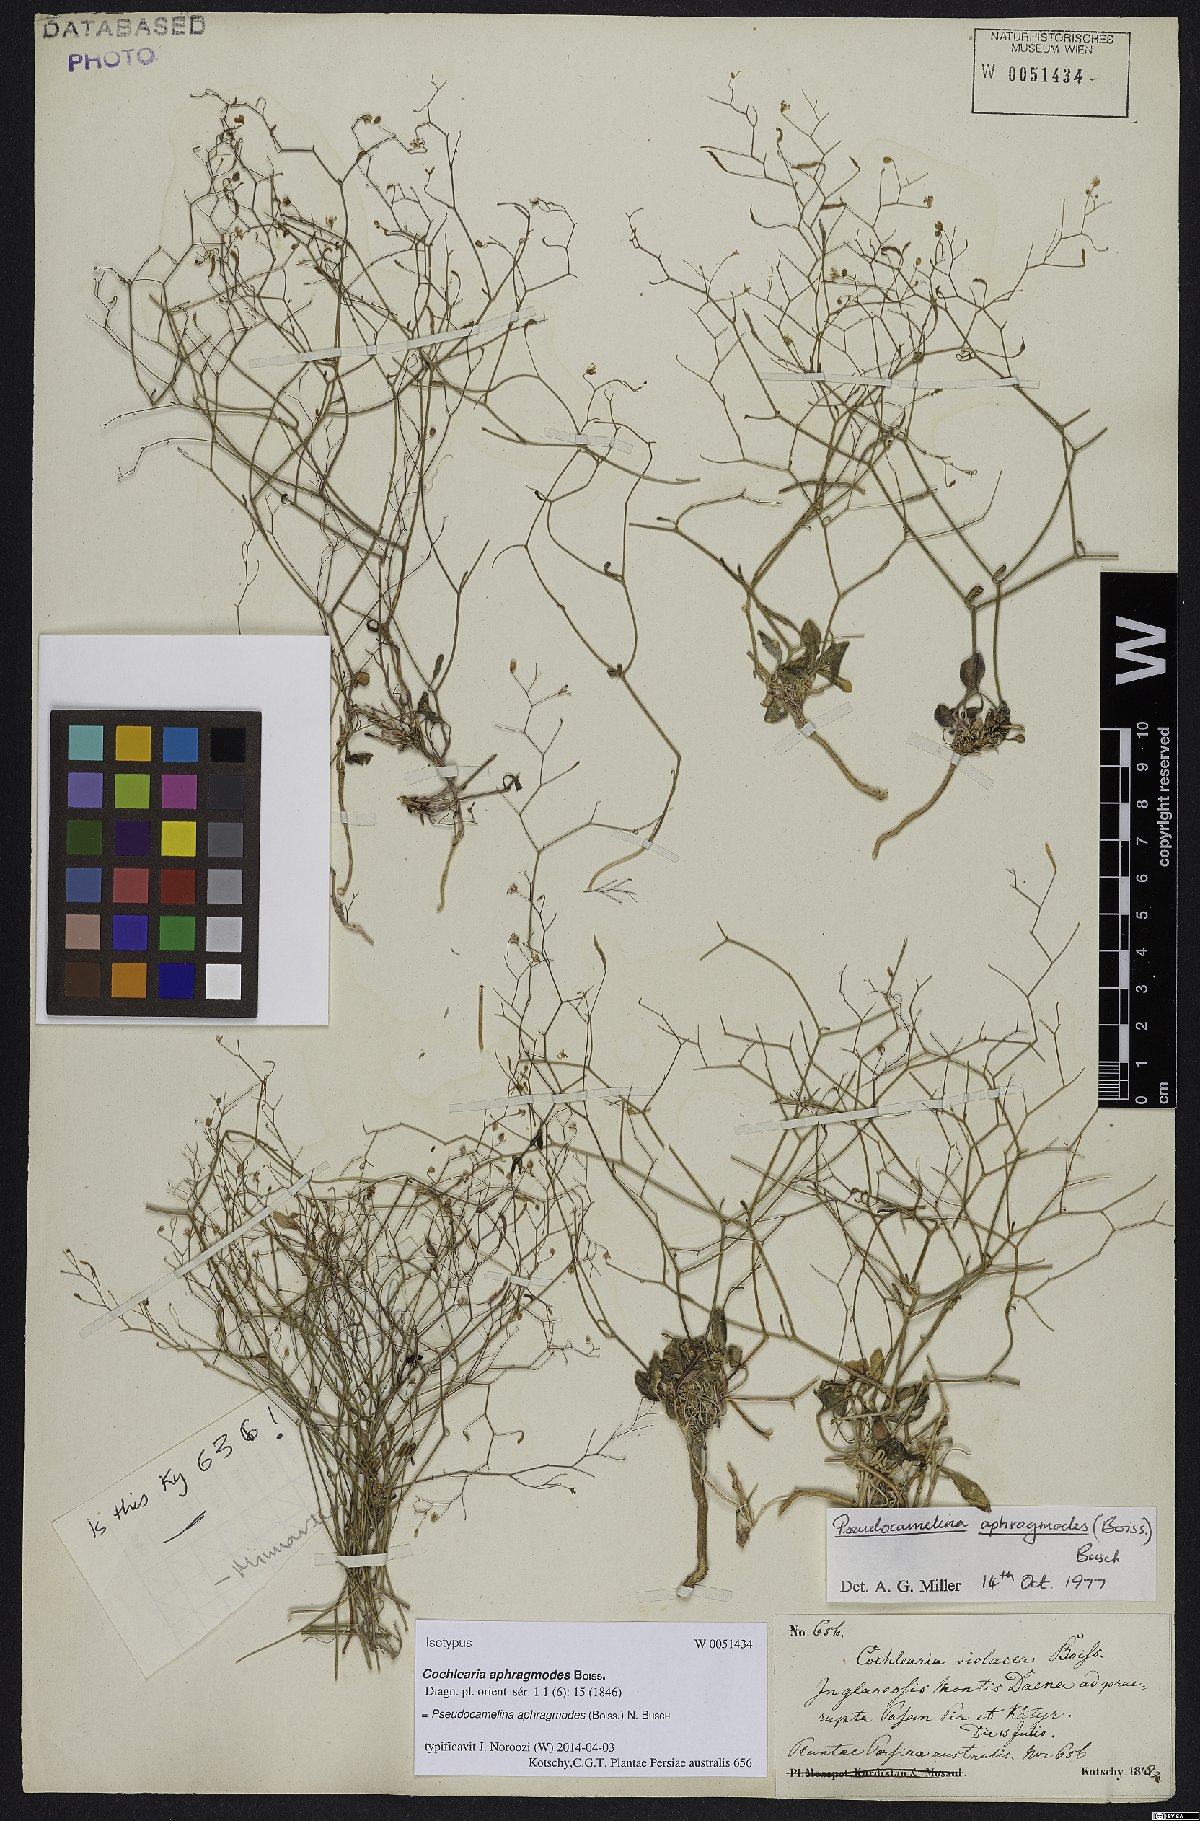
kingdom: Plantae
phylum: Tracheophyta
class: Magnoliopsida
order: Brassicales
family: Brassicaceae
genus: Pseudocamelina
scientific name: Pseudocamelina aphragmodes
